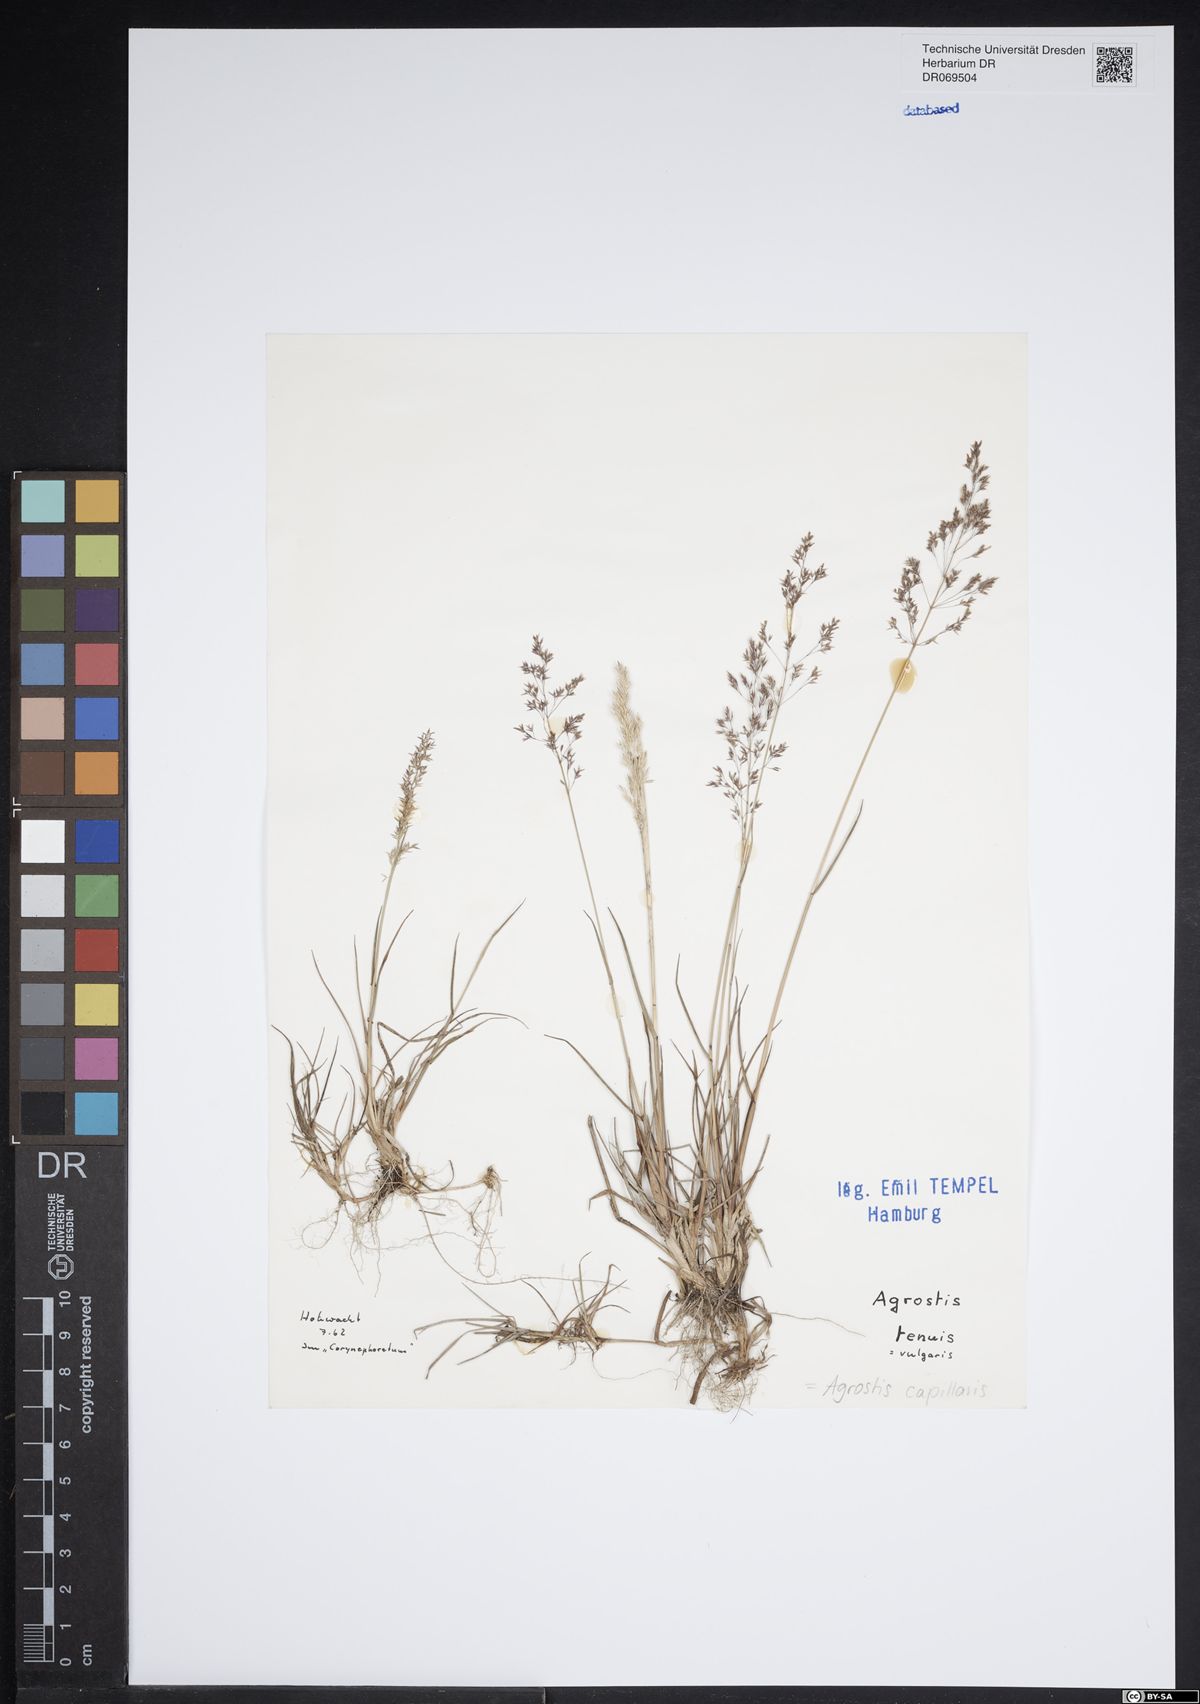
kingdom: Plantae
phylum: Tracheophyta
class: Liliopsida
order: Poales
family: Poaceae
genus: Agrostis
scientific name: Agrostis capillaris
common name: Colonial bentgrass
